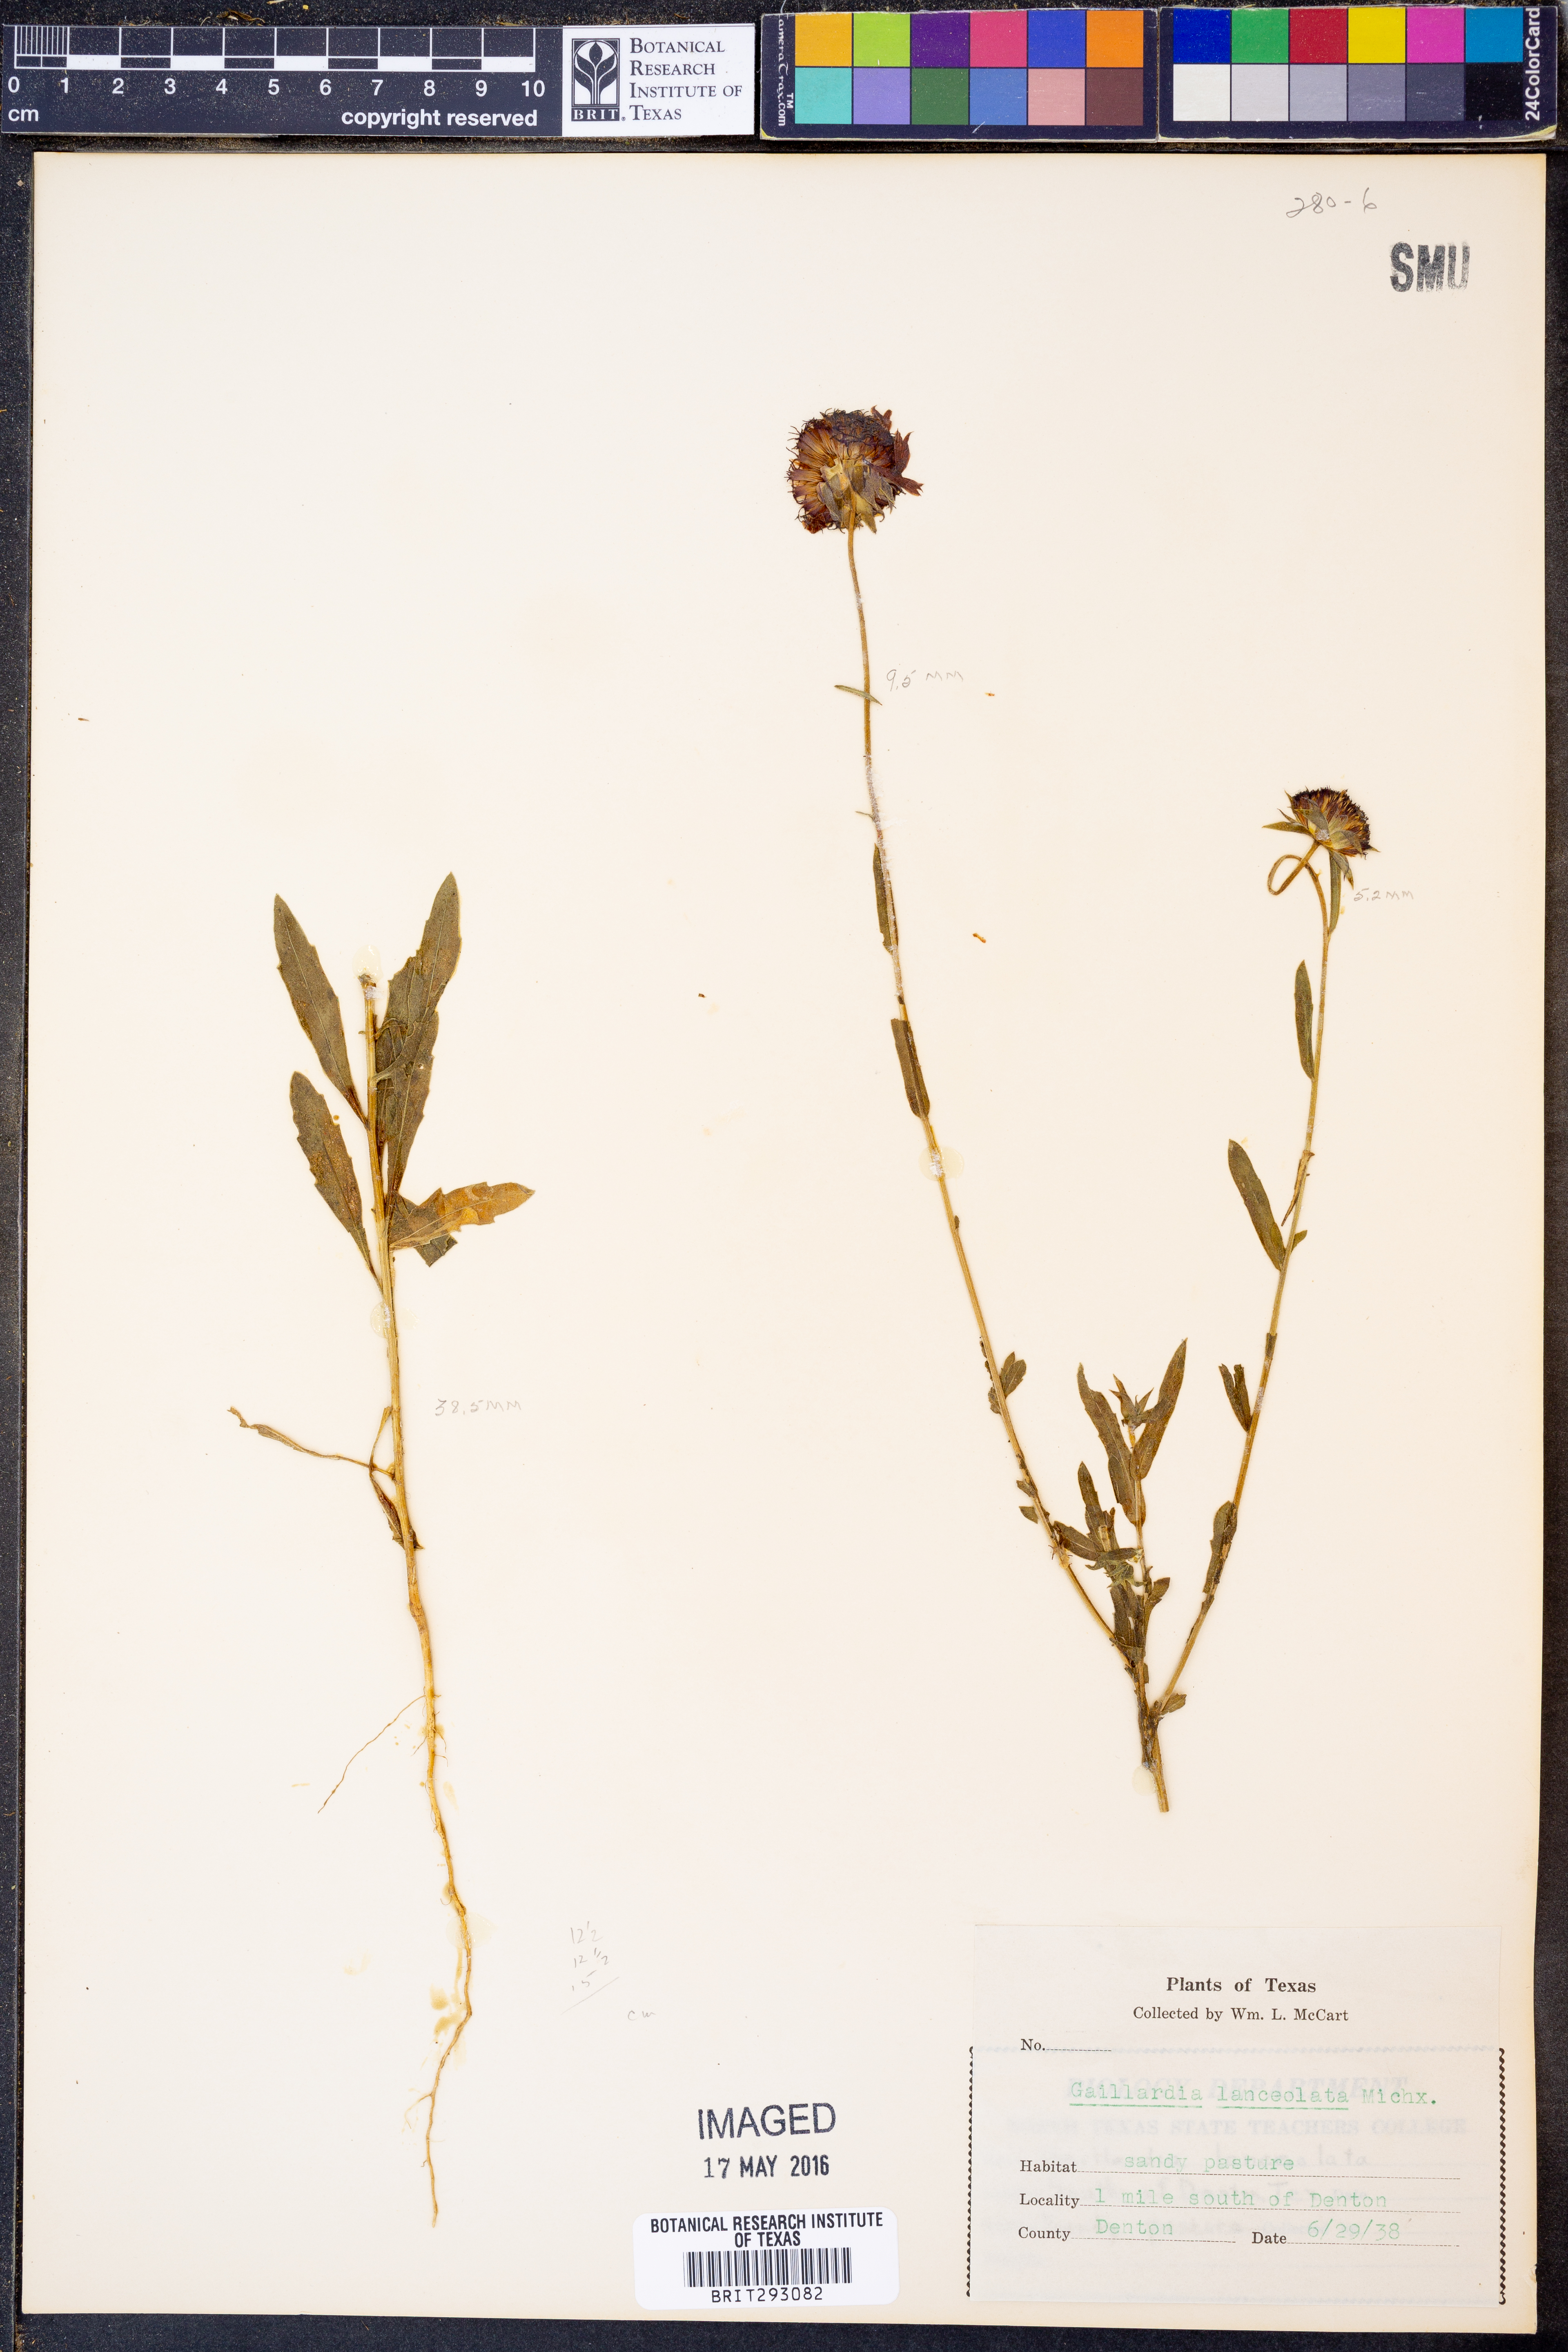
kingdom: Plantae
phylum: Tracheophyta
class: Magnoliopsida
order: Asterales
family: Asteraceae
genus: Gaillardia
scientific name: Gaillardia aestivalis
